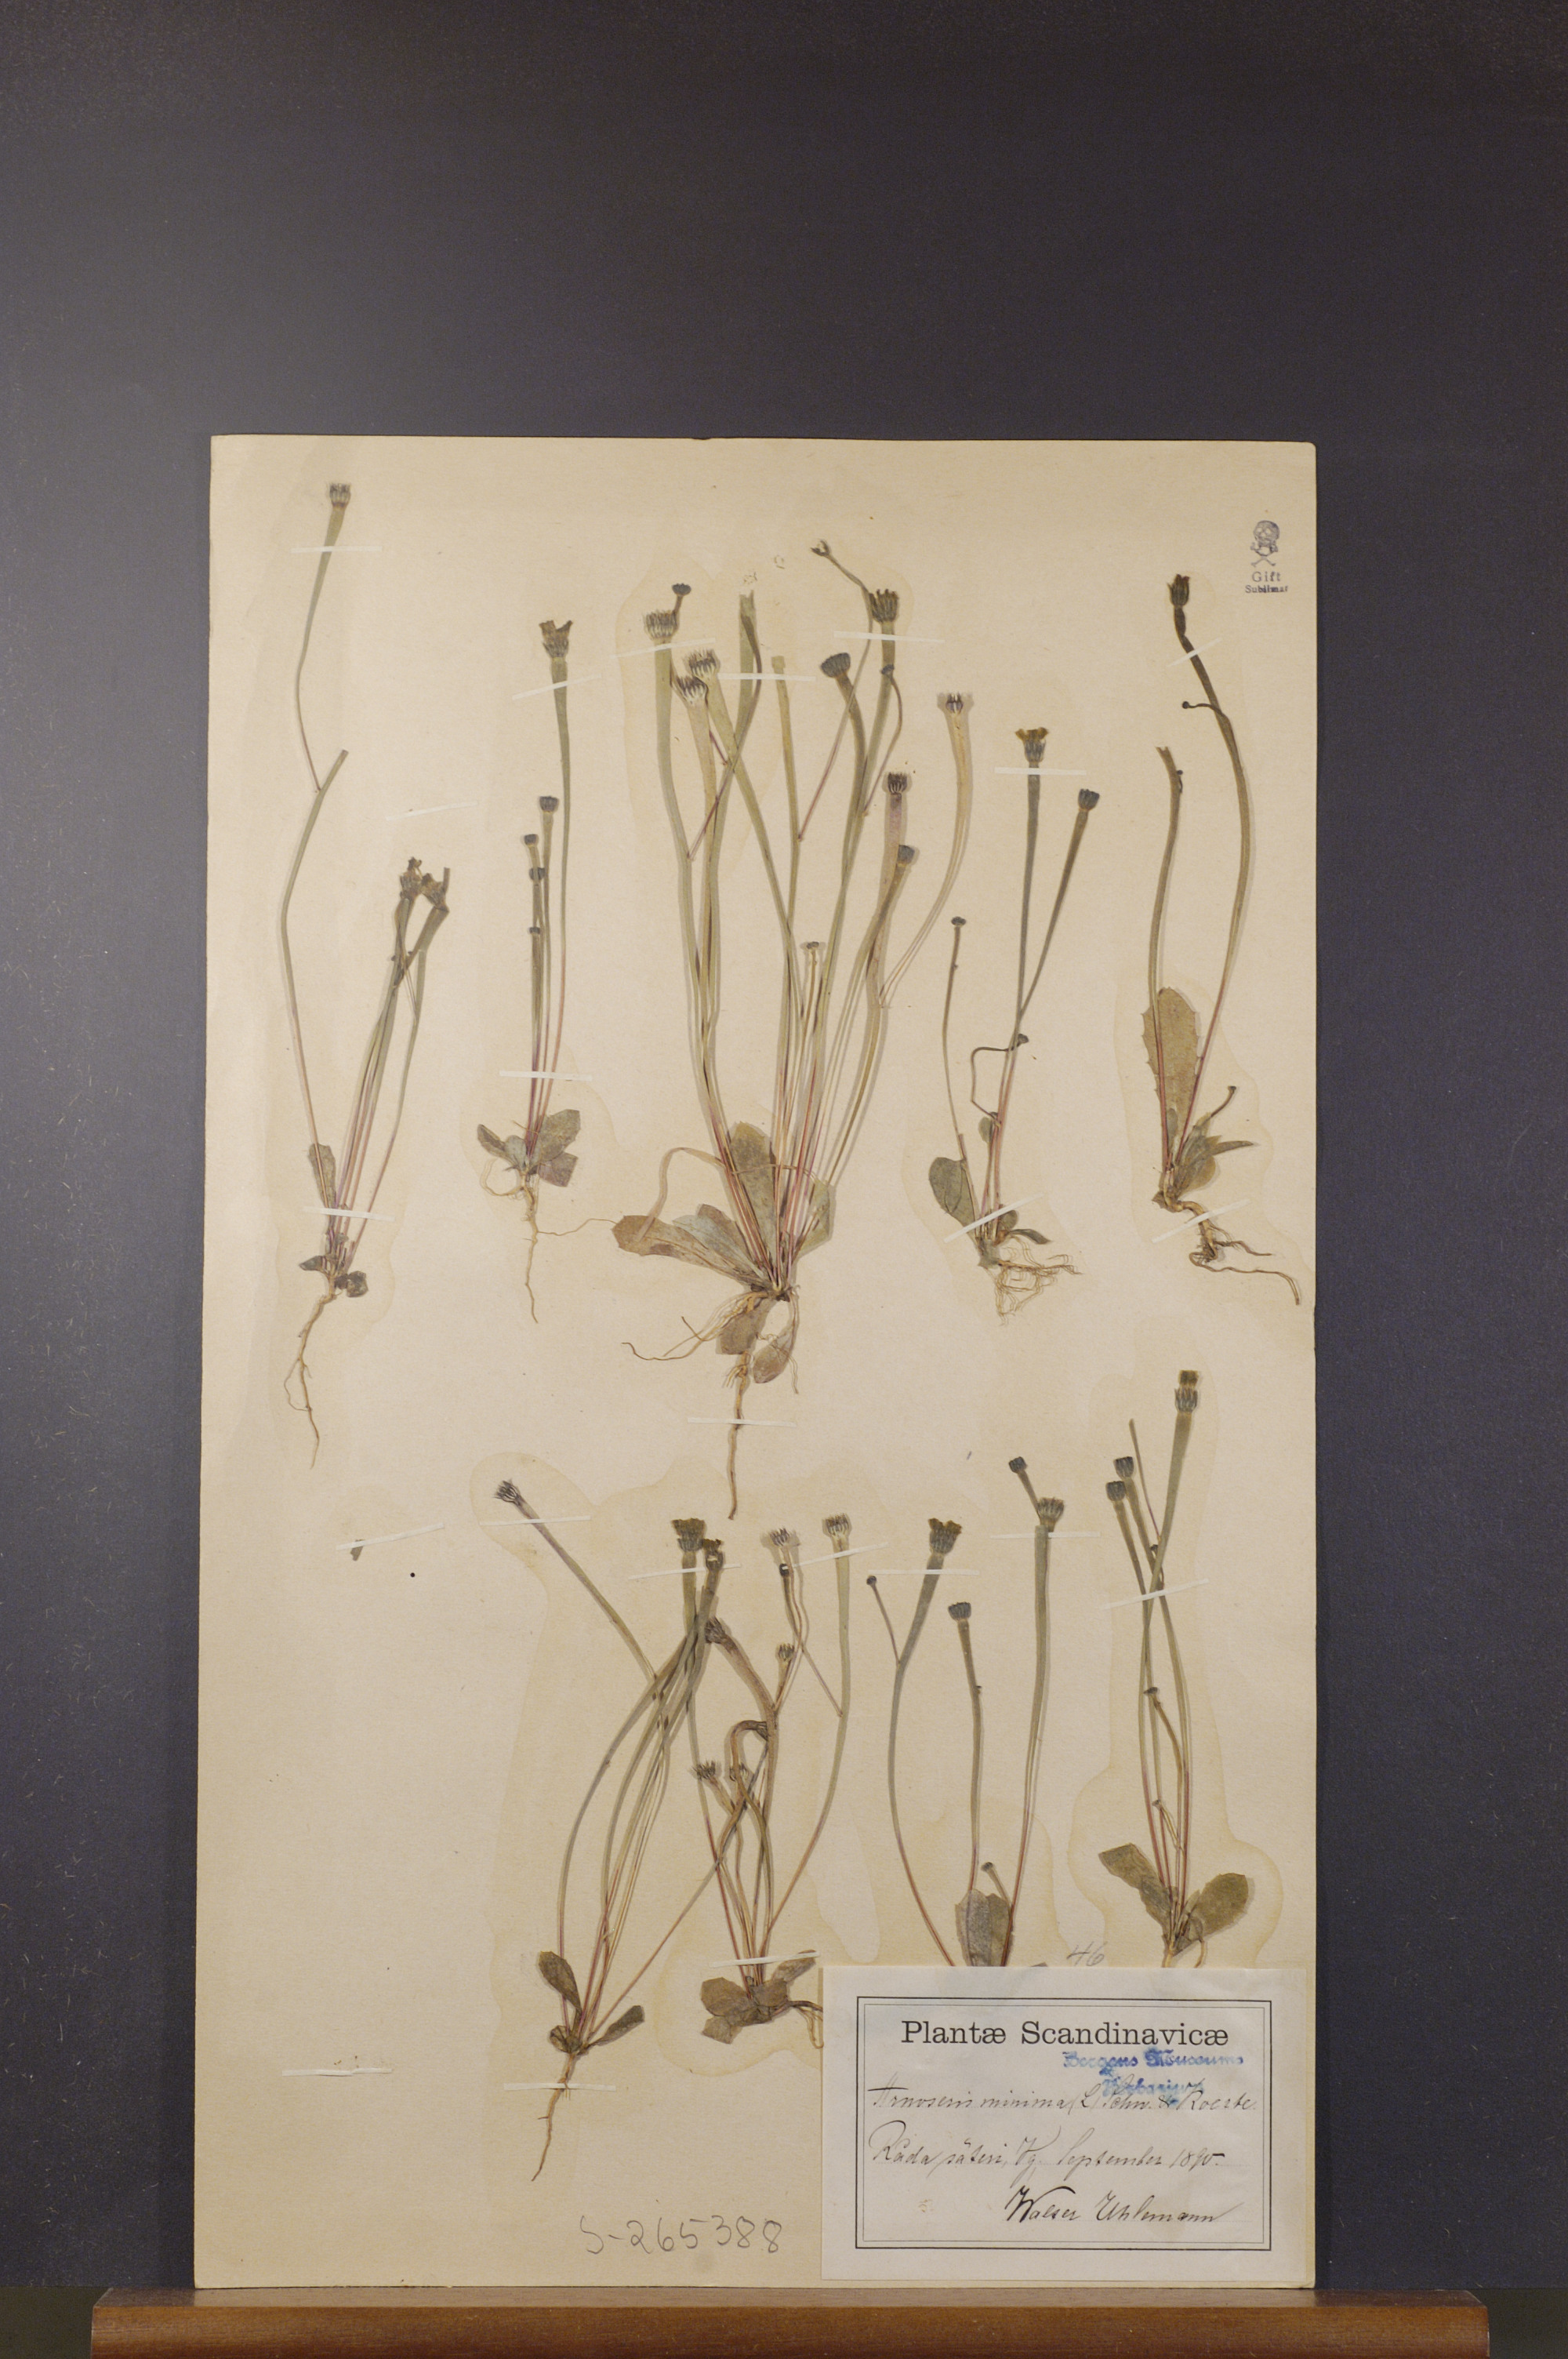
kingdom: Plantae
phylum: Tracheophyta
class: Magnoliopsida
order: Asterales
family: Asteraceae
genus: Arnoseris
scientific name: Arnoseris minima
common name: Lamb's succory
